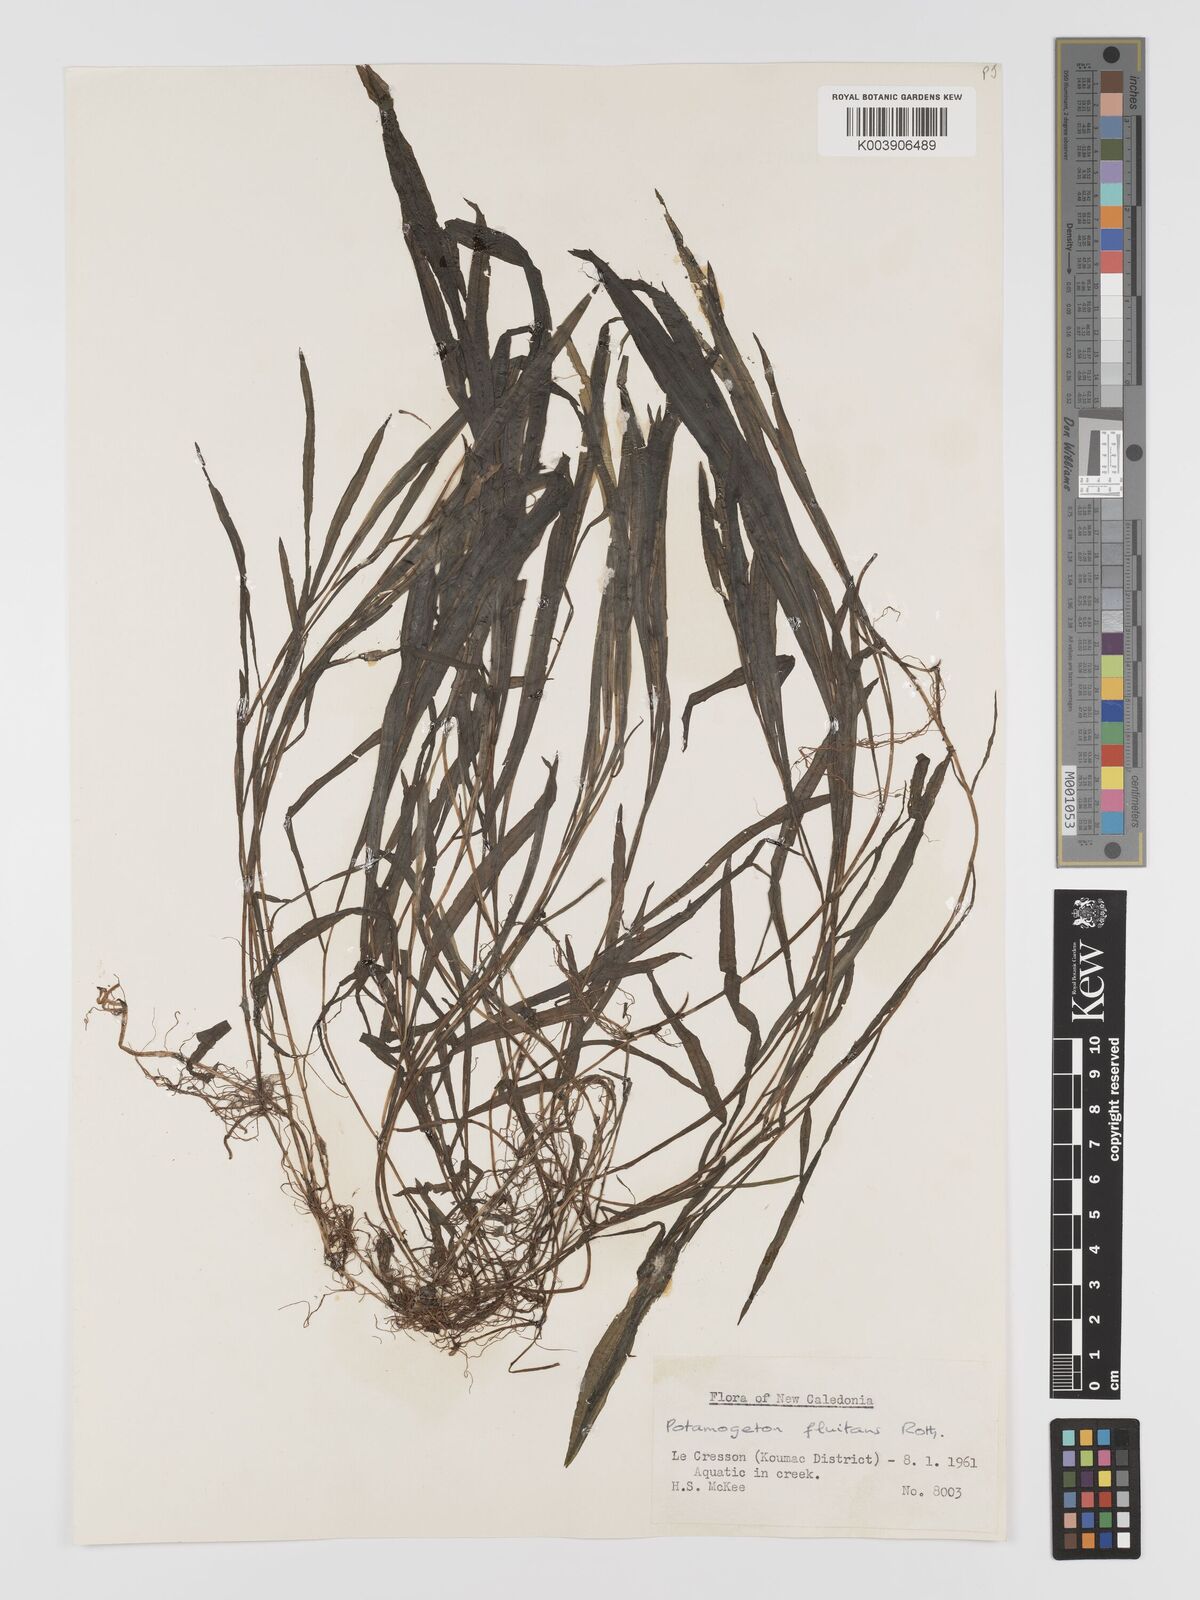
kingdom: Plantae
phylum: Tracheophyta
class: Liliopsida
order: Alismatales
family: Potamogetonaceae
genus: Potamogeton
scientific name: Potamogeton nodosus
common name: Loddon pondweed
